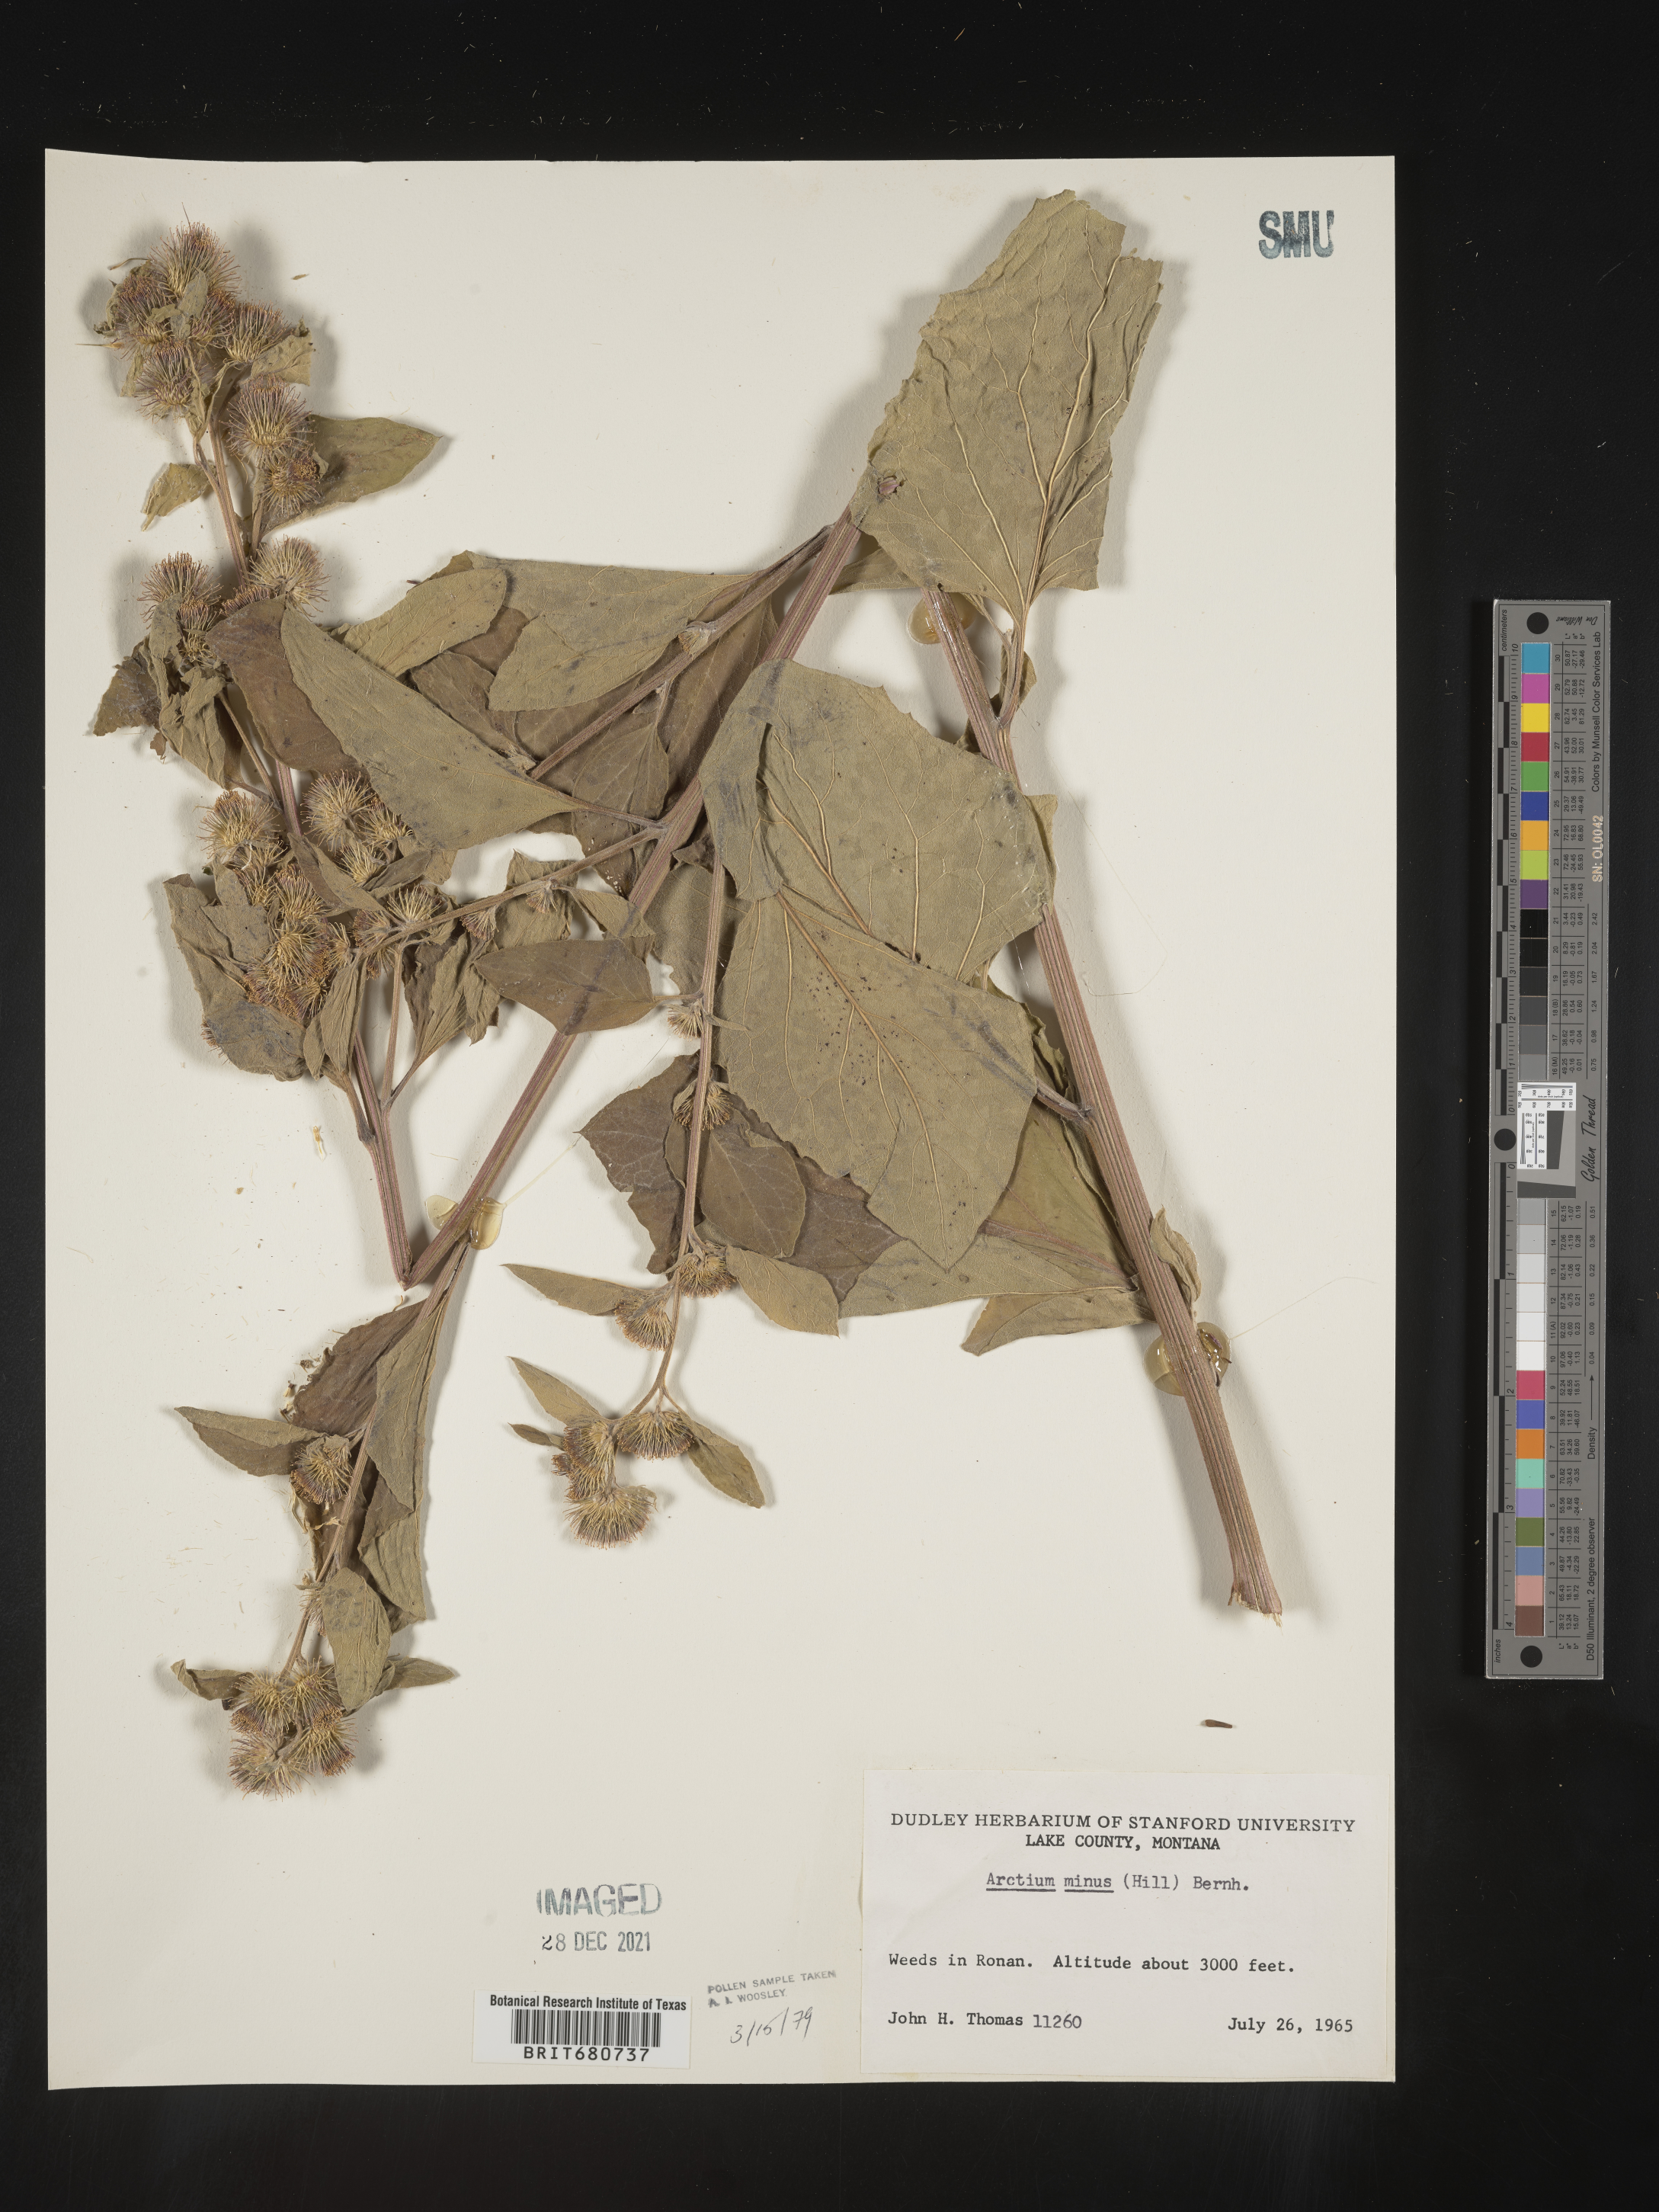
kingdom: Plantae
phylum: Tracheophyta
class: Magnoliopsida
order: Asterales
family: Asteraceae
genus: Arctium
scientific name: Arctium minus
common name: Lesser burdock
